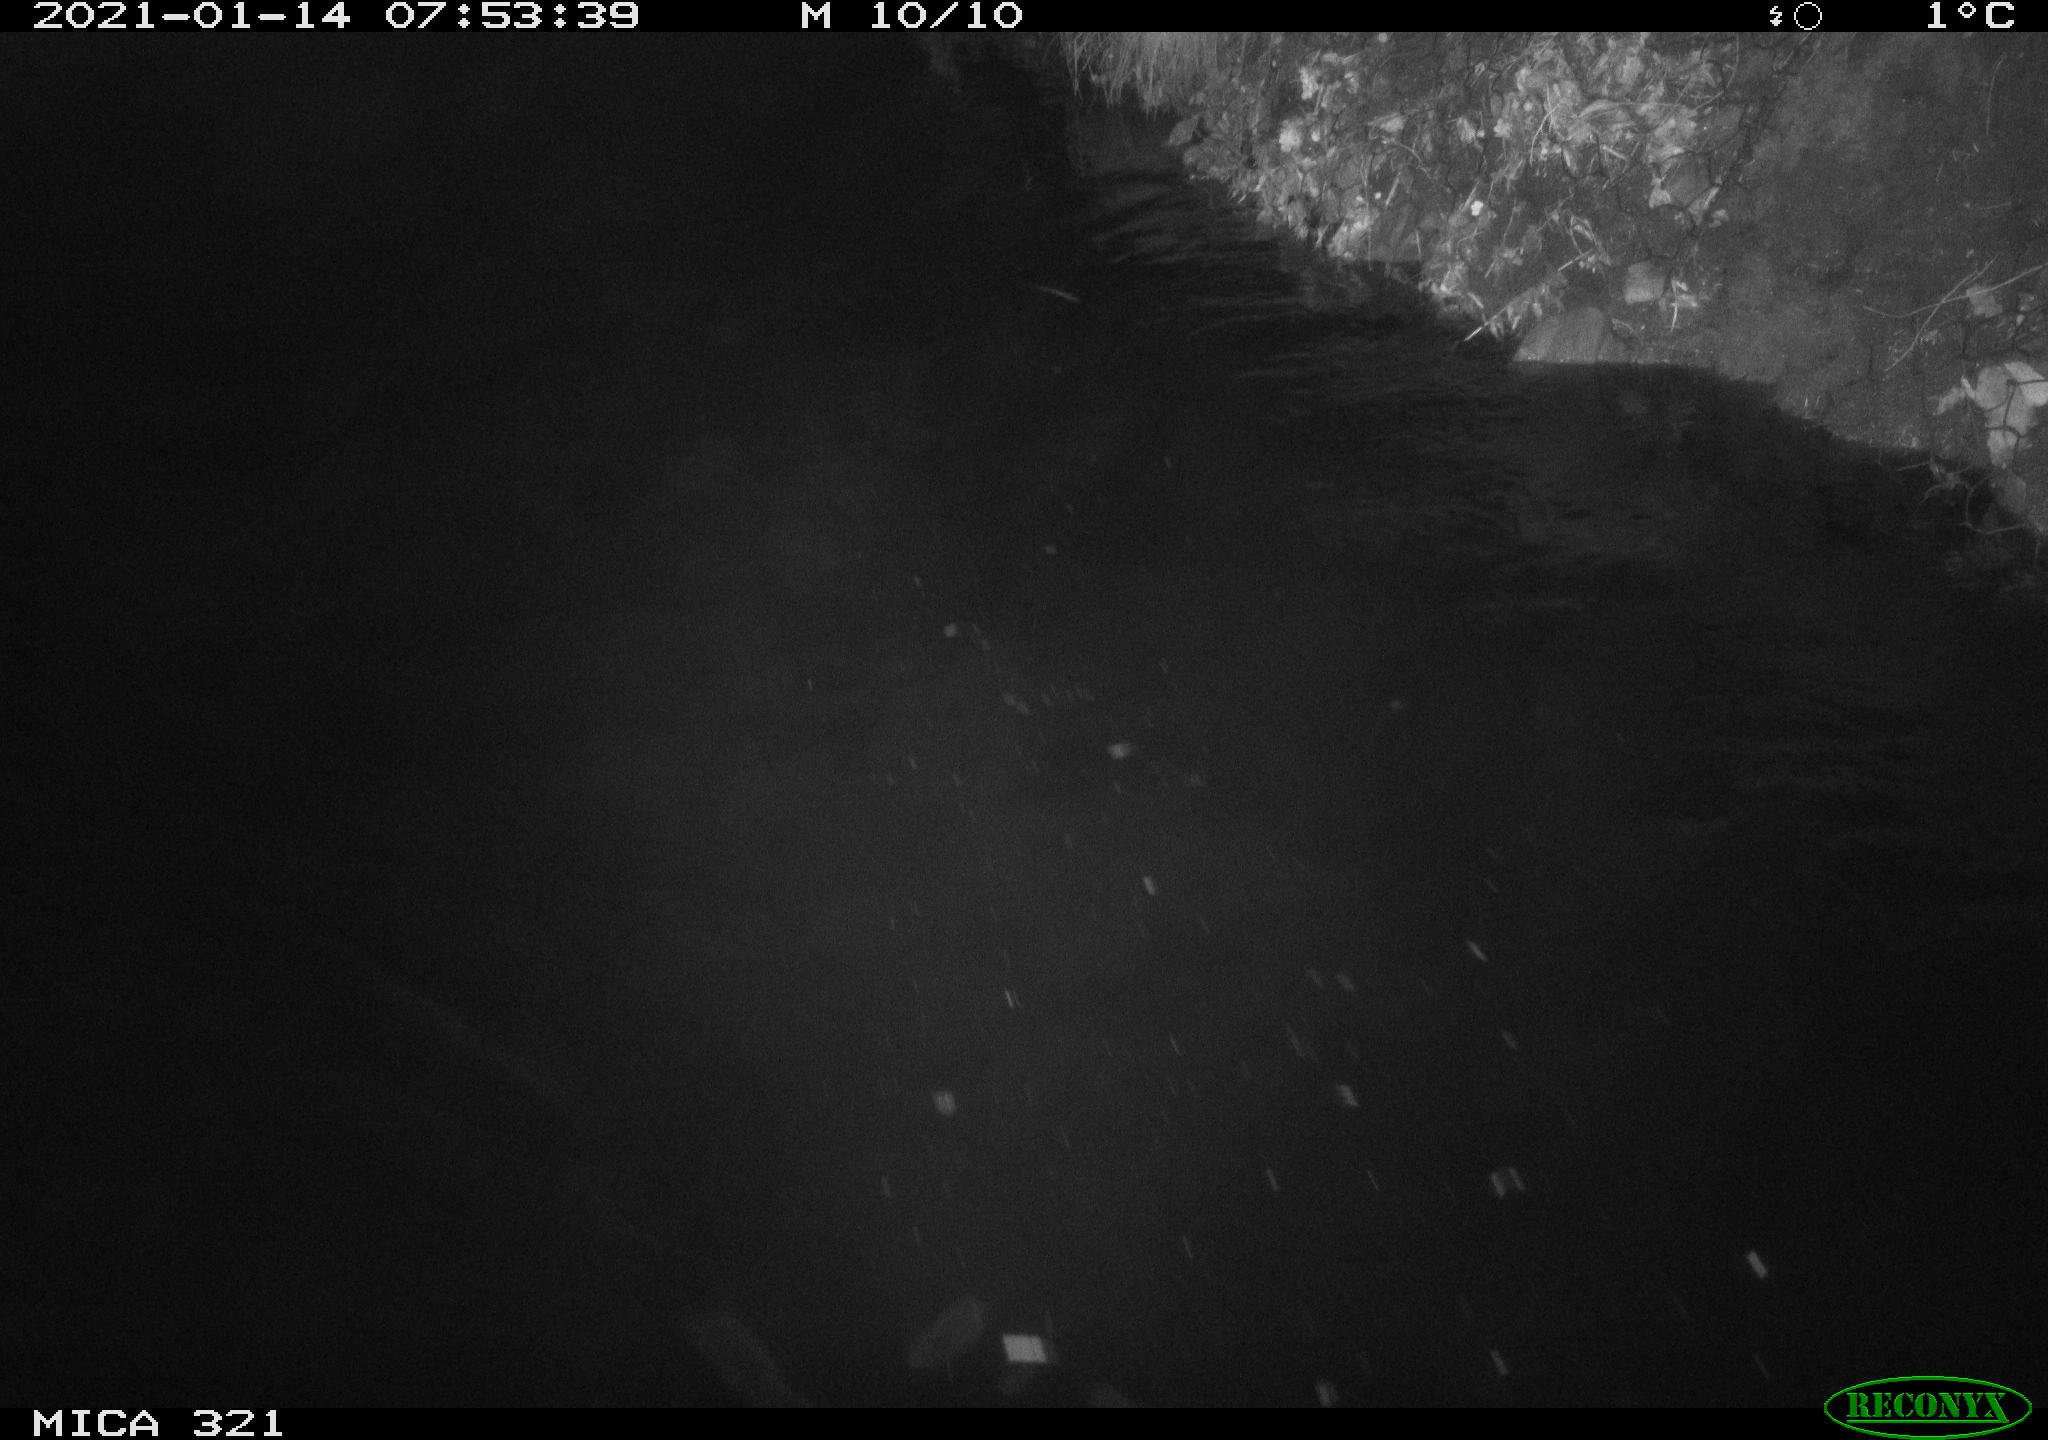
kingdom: Animalia
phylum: Chordata
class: Aves
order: Anseriformes
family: Anatidae
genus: Anas
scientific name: Anas platyrhynchos
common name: Mallard
